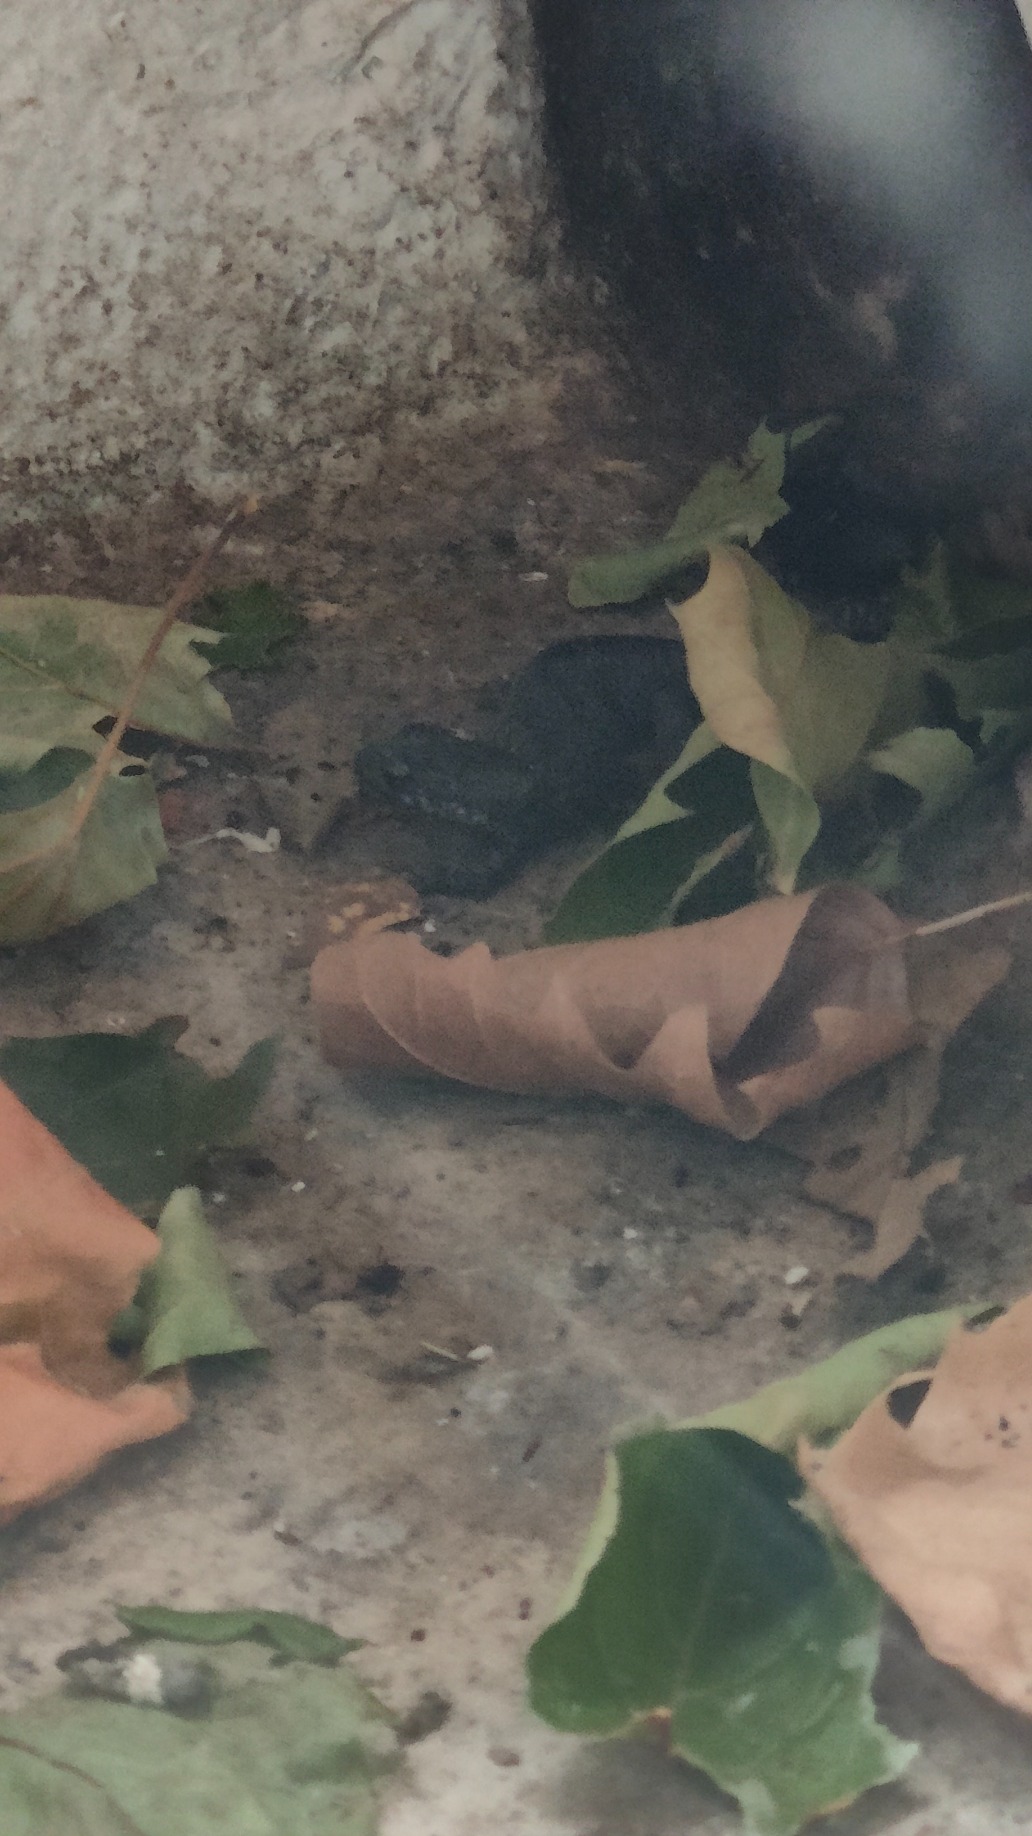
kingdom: Animalia
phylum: Chordata
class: Amphibia
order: Caudata
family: Salamandridae
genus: Triturus
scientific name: Triturus cristatus
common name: Stor vandsalamander
